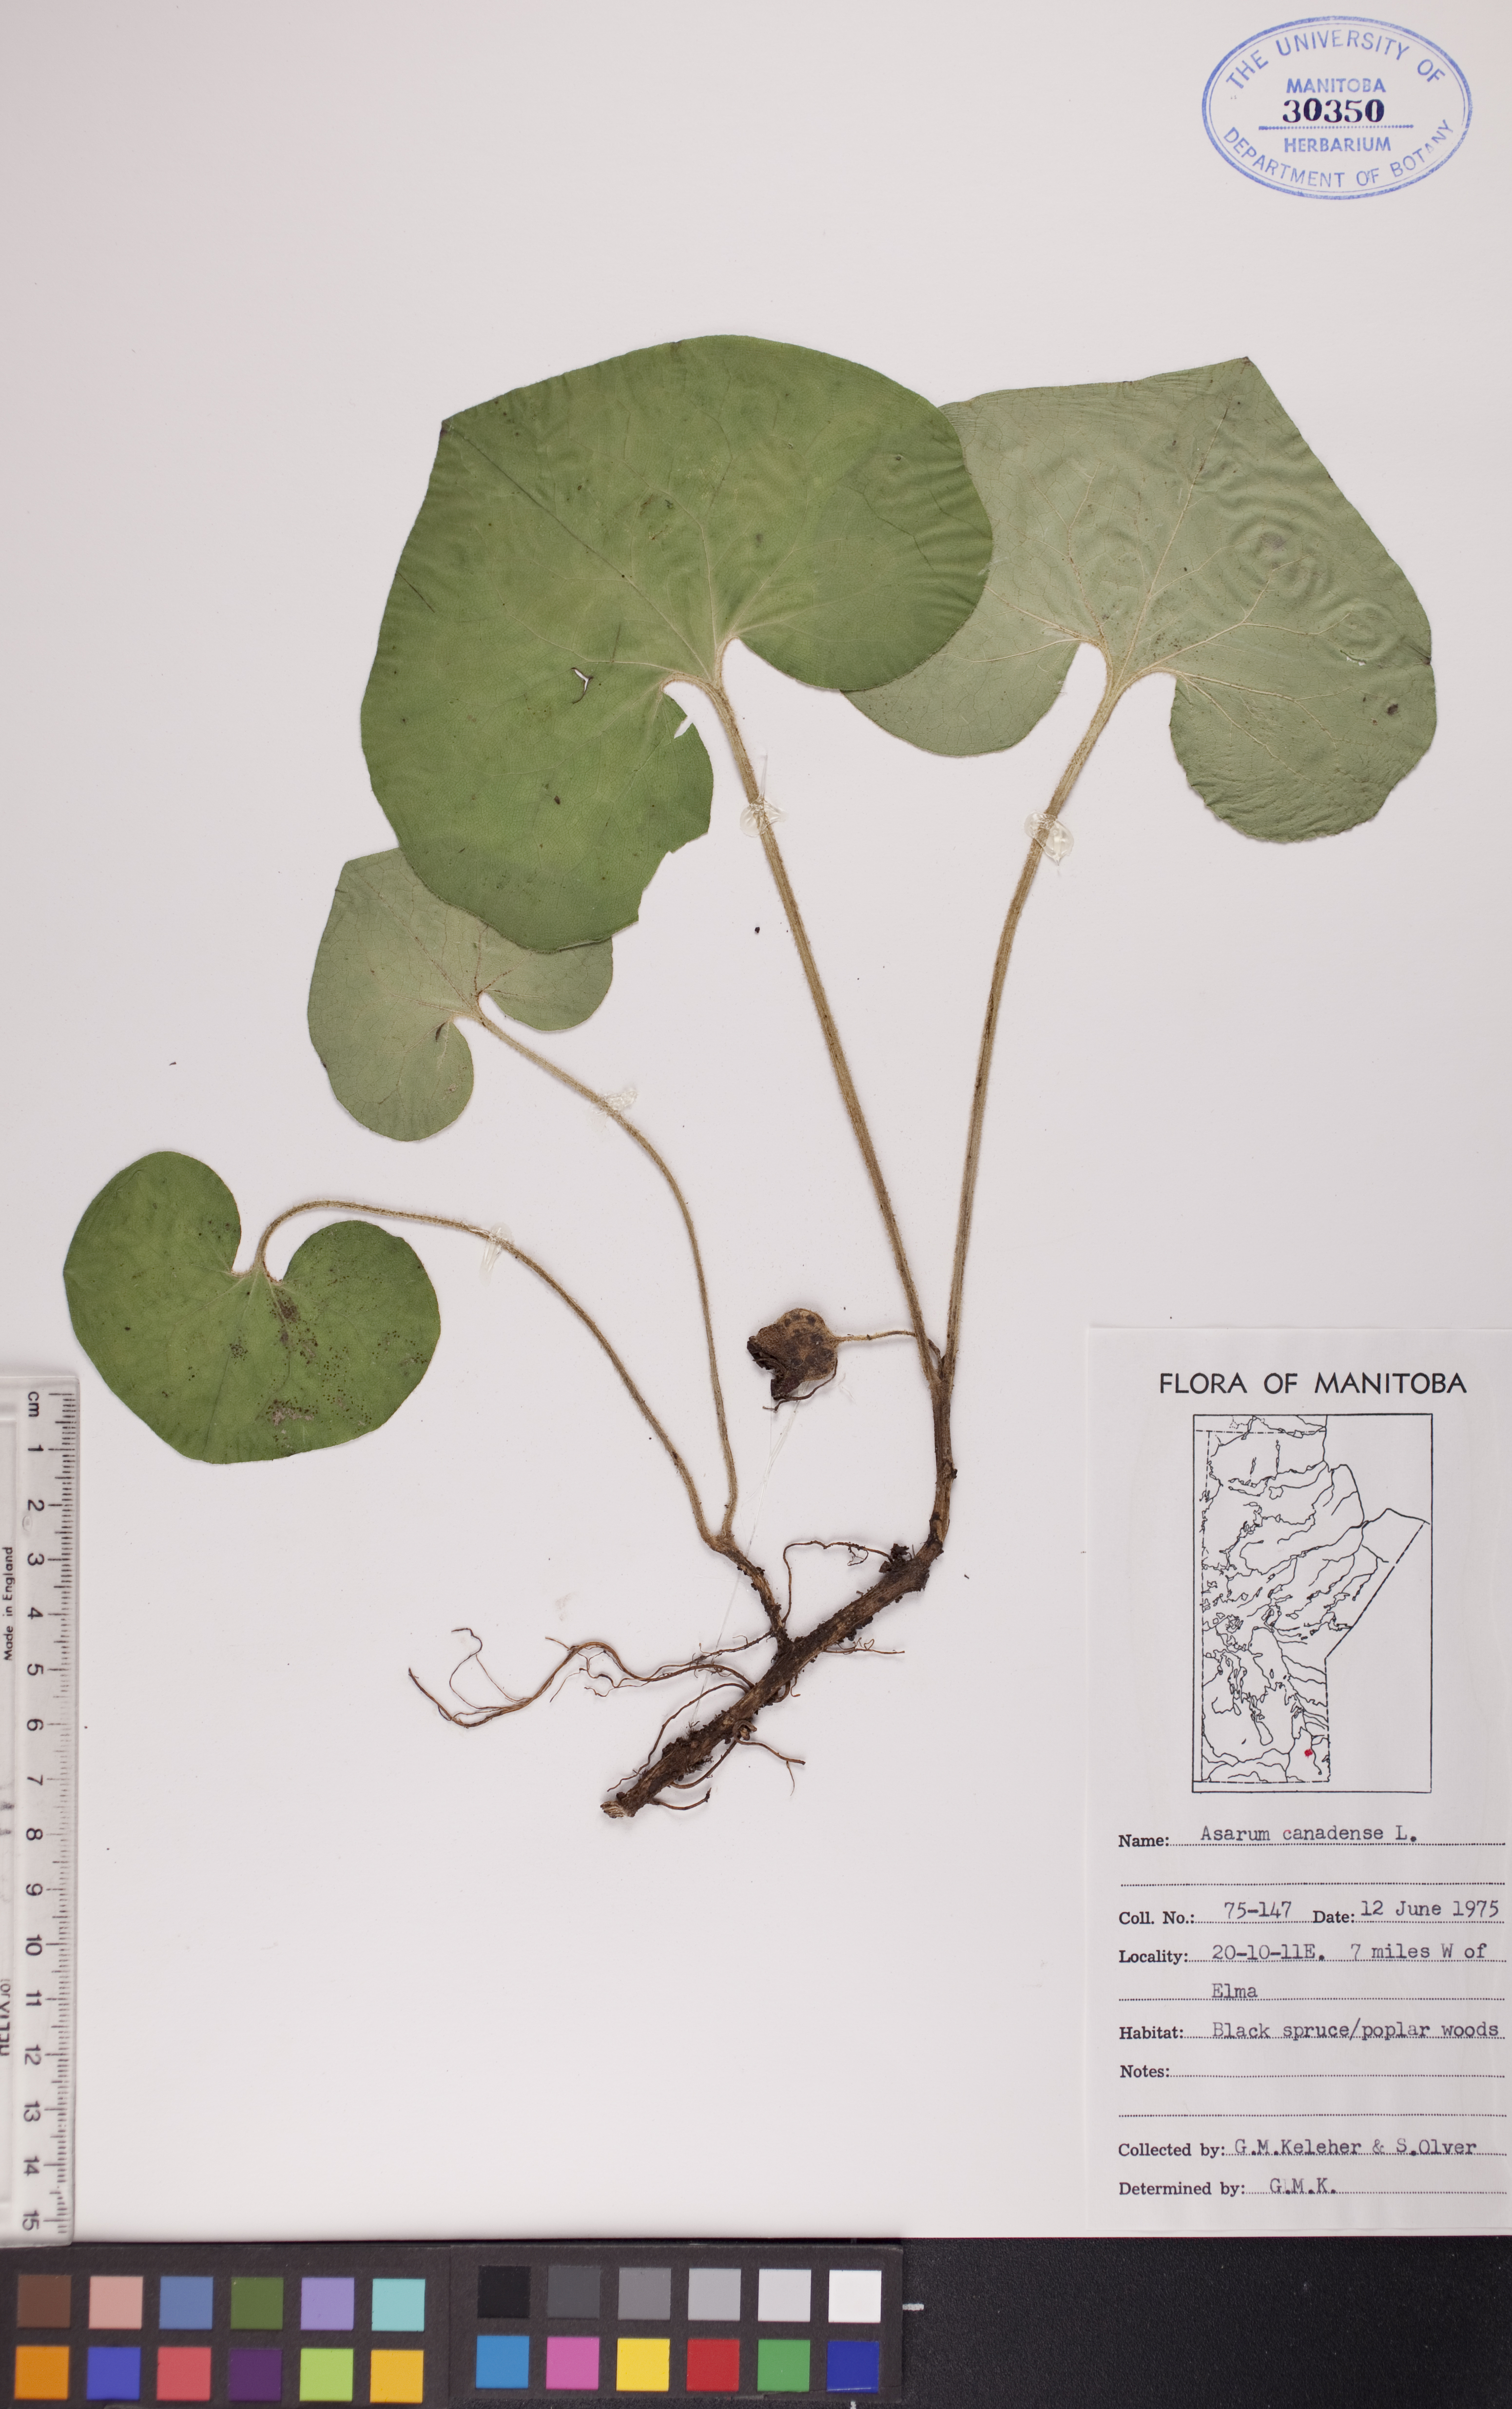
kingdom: Plantae
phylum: Tracheophyta
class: Magnoliopsida
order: Piperales
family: Aristolochiaceae
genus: Asarum
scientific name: Asarum canadense
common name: Wild ginger
